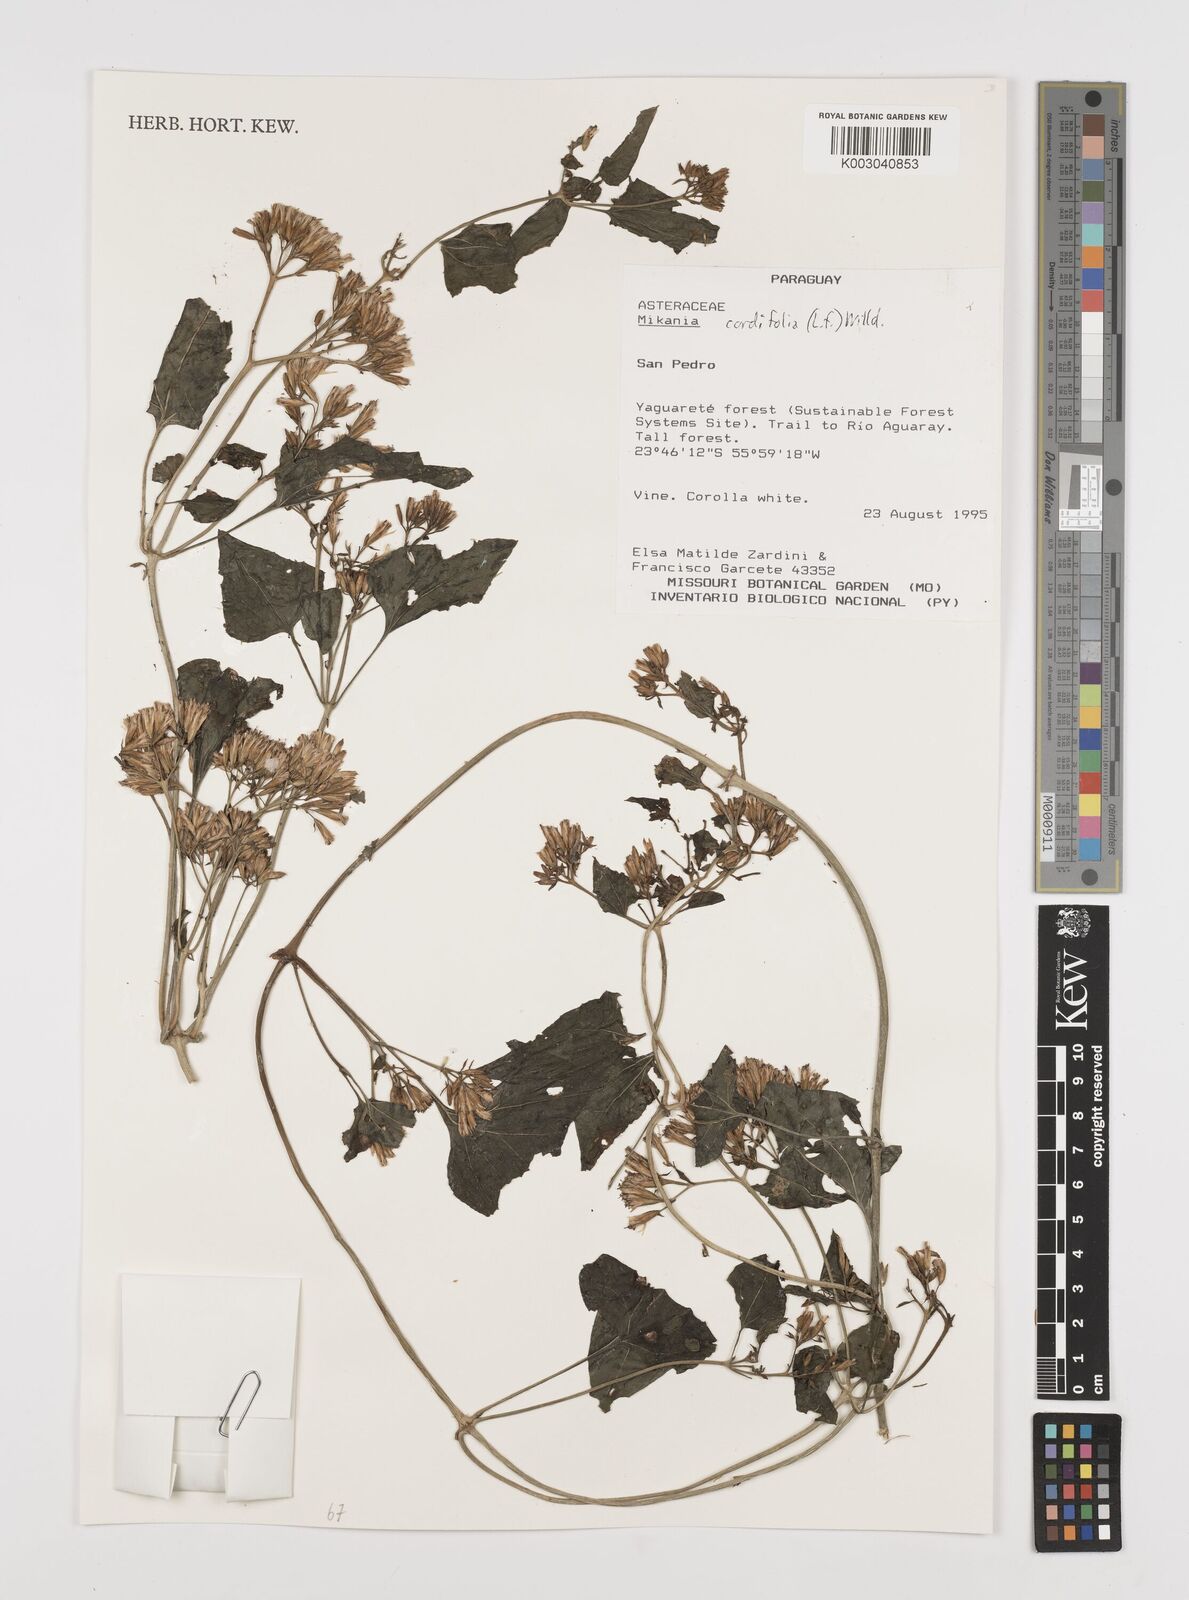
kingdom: Plantae
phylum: Tracheophyta
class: Magnoliopsida
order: Asterales
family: Asteraceae
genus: Mikania
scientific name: Mikania cordifolia
